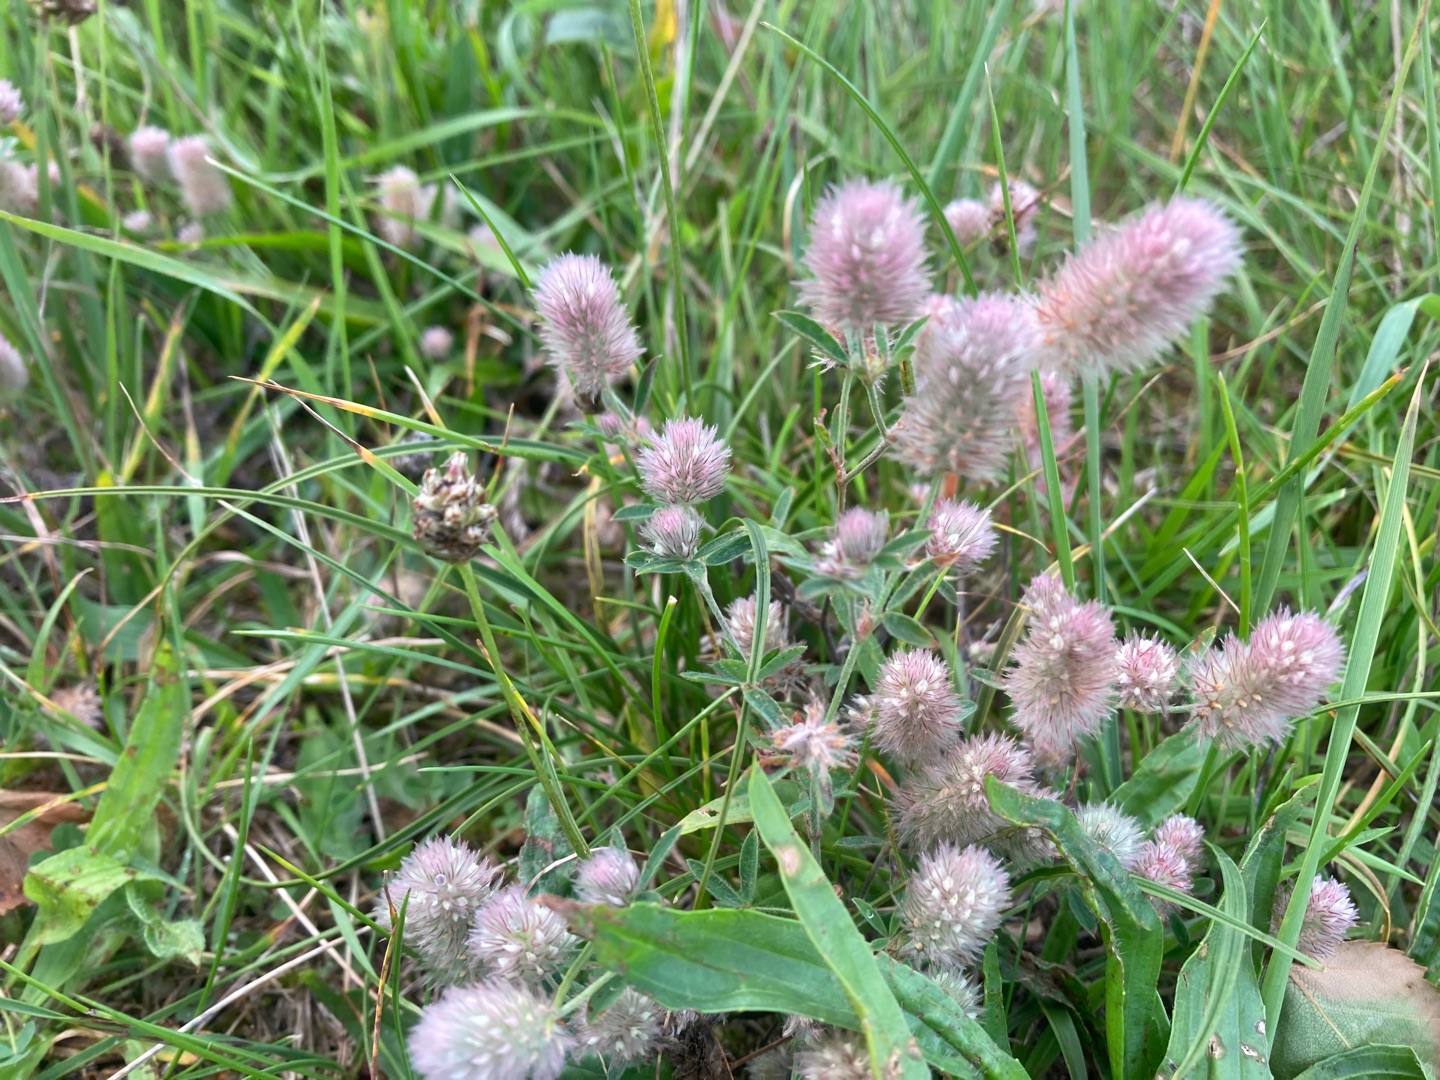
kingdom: Plantae
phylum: Tracheophyta
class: Magnoliopsida
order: Fabales
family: Fabaceae
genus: Trifolium
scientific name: Trifolium arvense
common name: Hare-kløver
